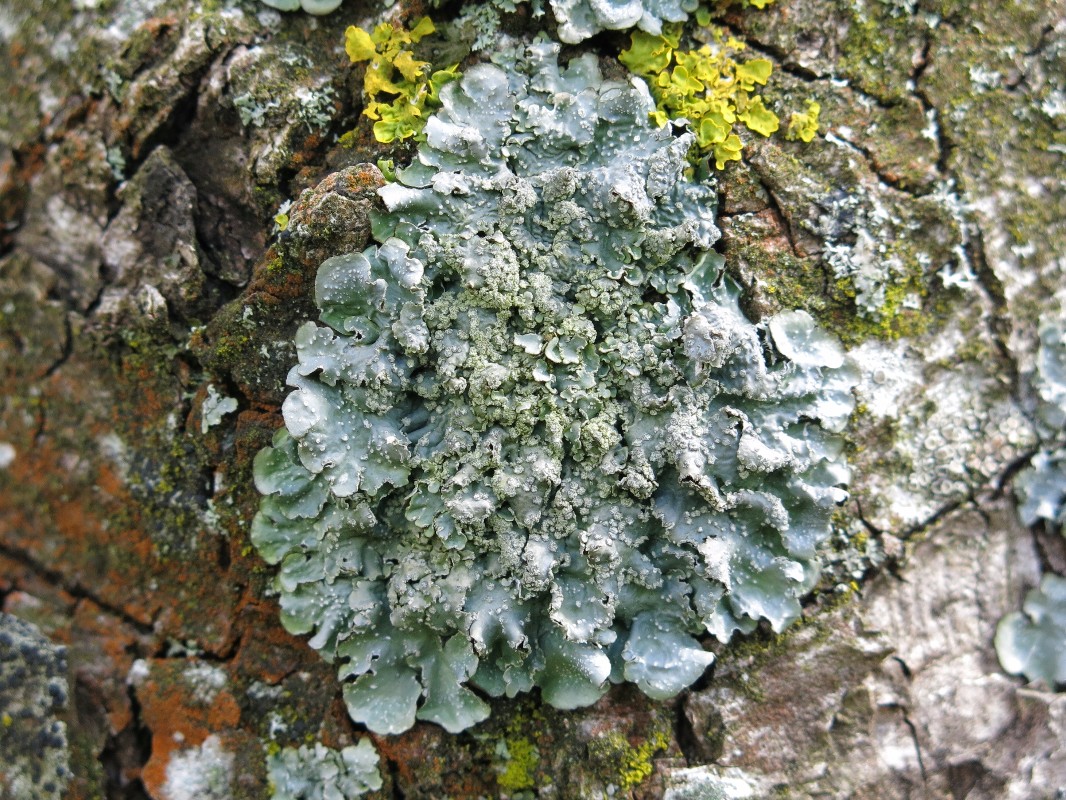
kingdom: Fungi
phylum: Ascomycota
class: Lecanoromycetes
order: Lecanorales
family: Parmeliaceae
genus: Punctelia
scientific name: Punctelia subrudecta
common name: punkt-skållav
